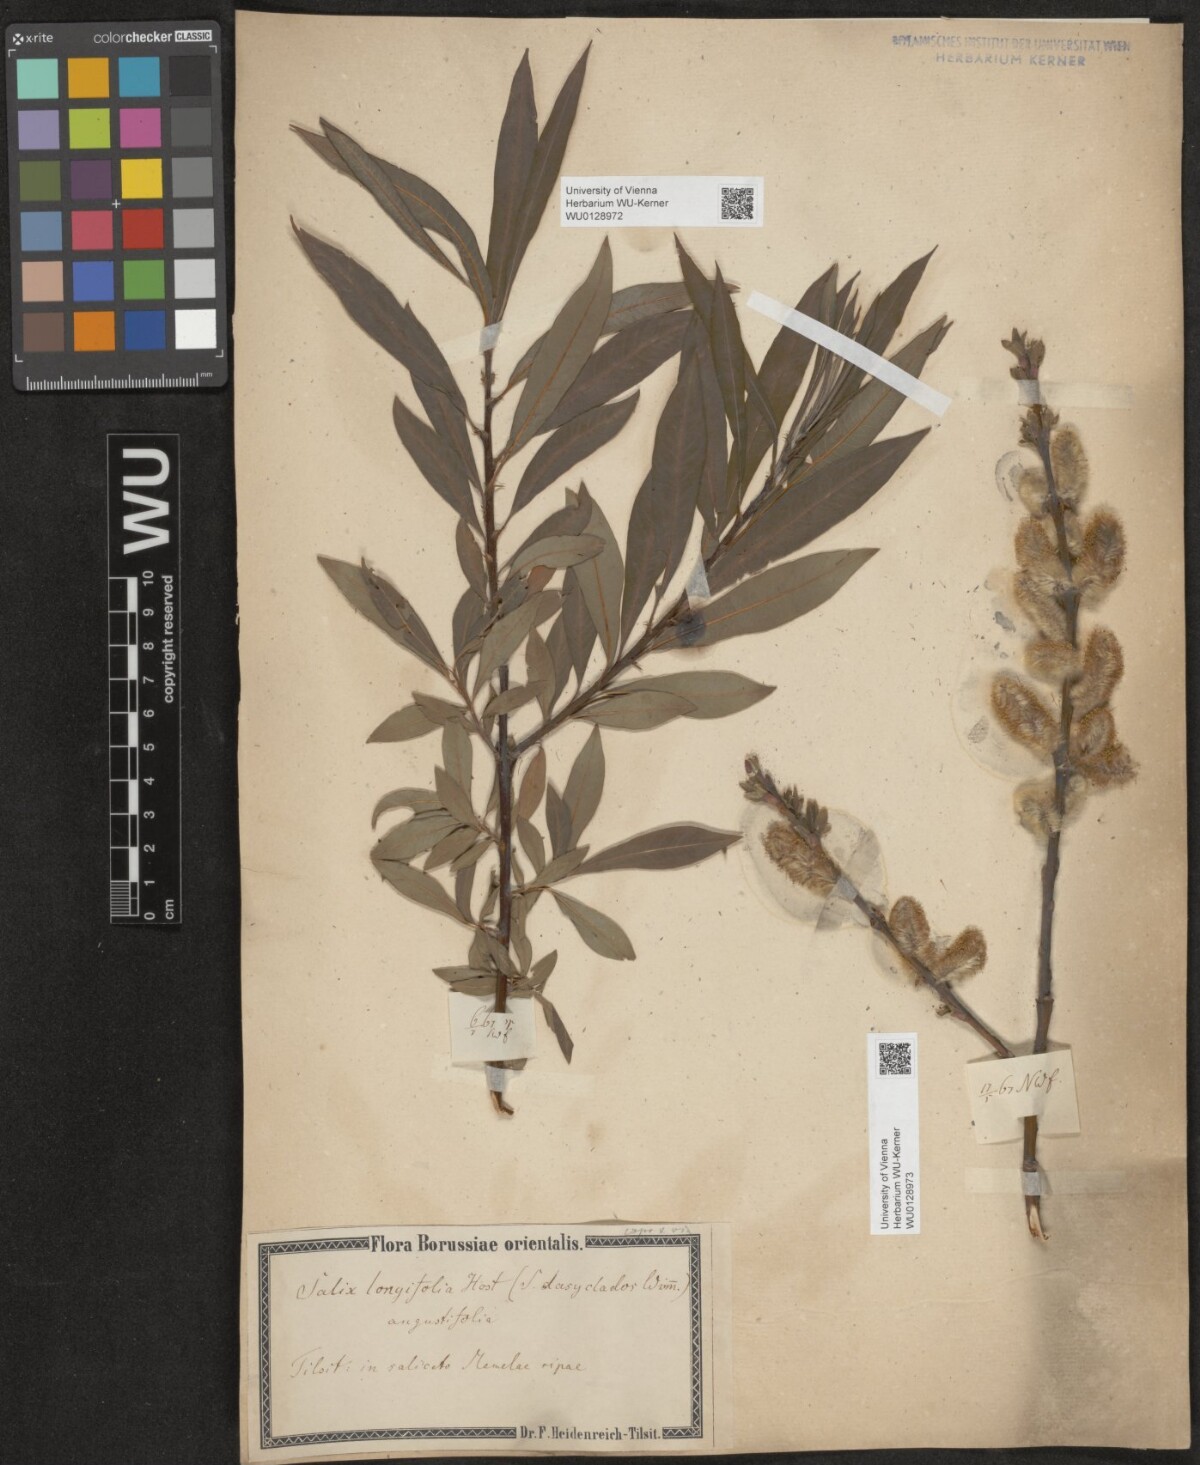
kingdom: Plantae
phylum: Tracheophyta
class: Magnoliopsida
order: Malpighiales
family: Salicaceae
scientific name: Salicaceae
